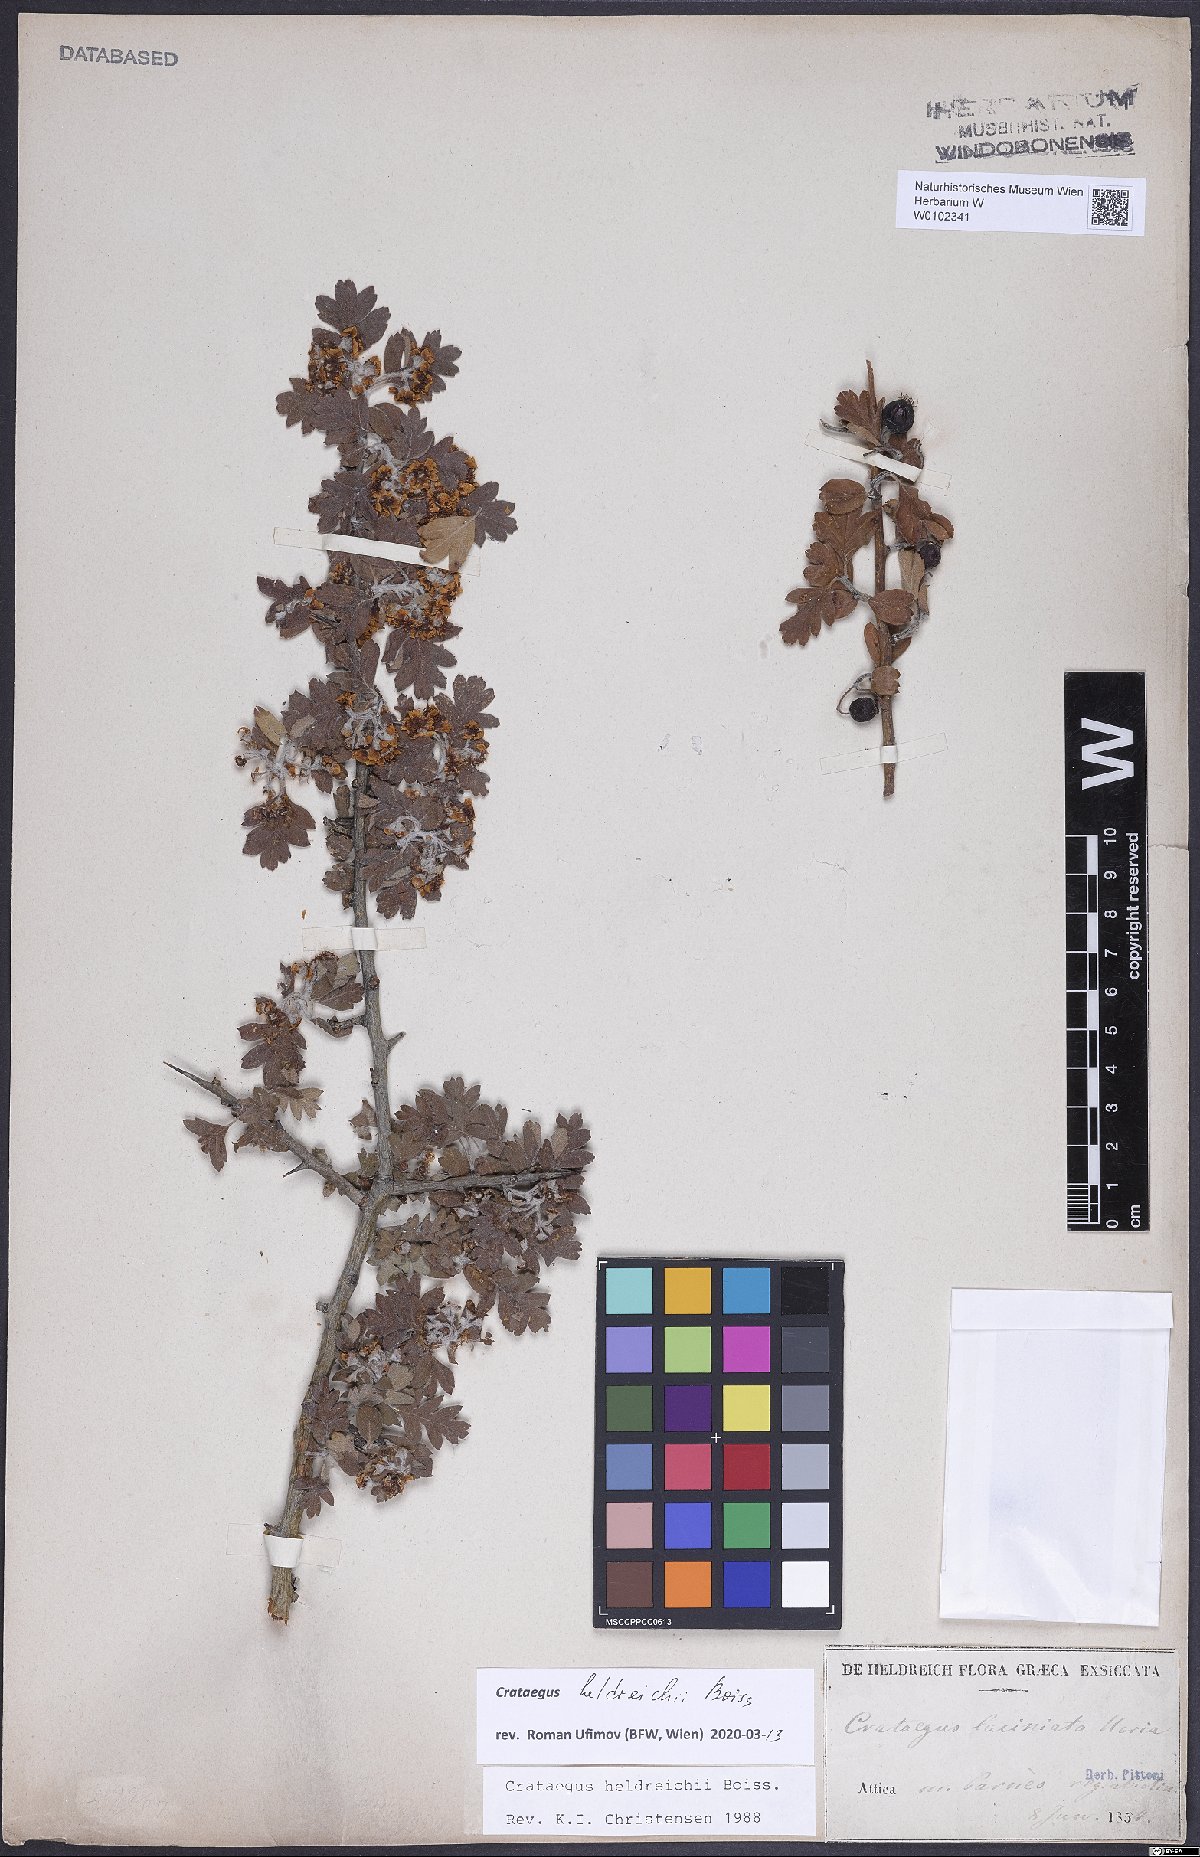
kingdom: Plantae
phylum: Tracheophyta
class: Magnoliopsida
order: Rosales
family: Rosaceae
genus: Crataegus
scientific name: Crataegus heldreichii
